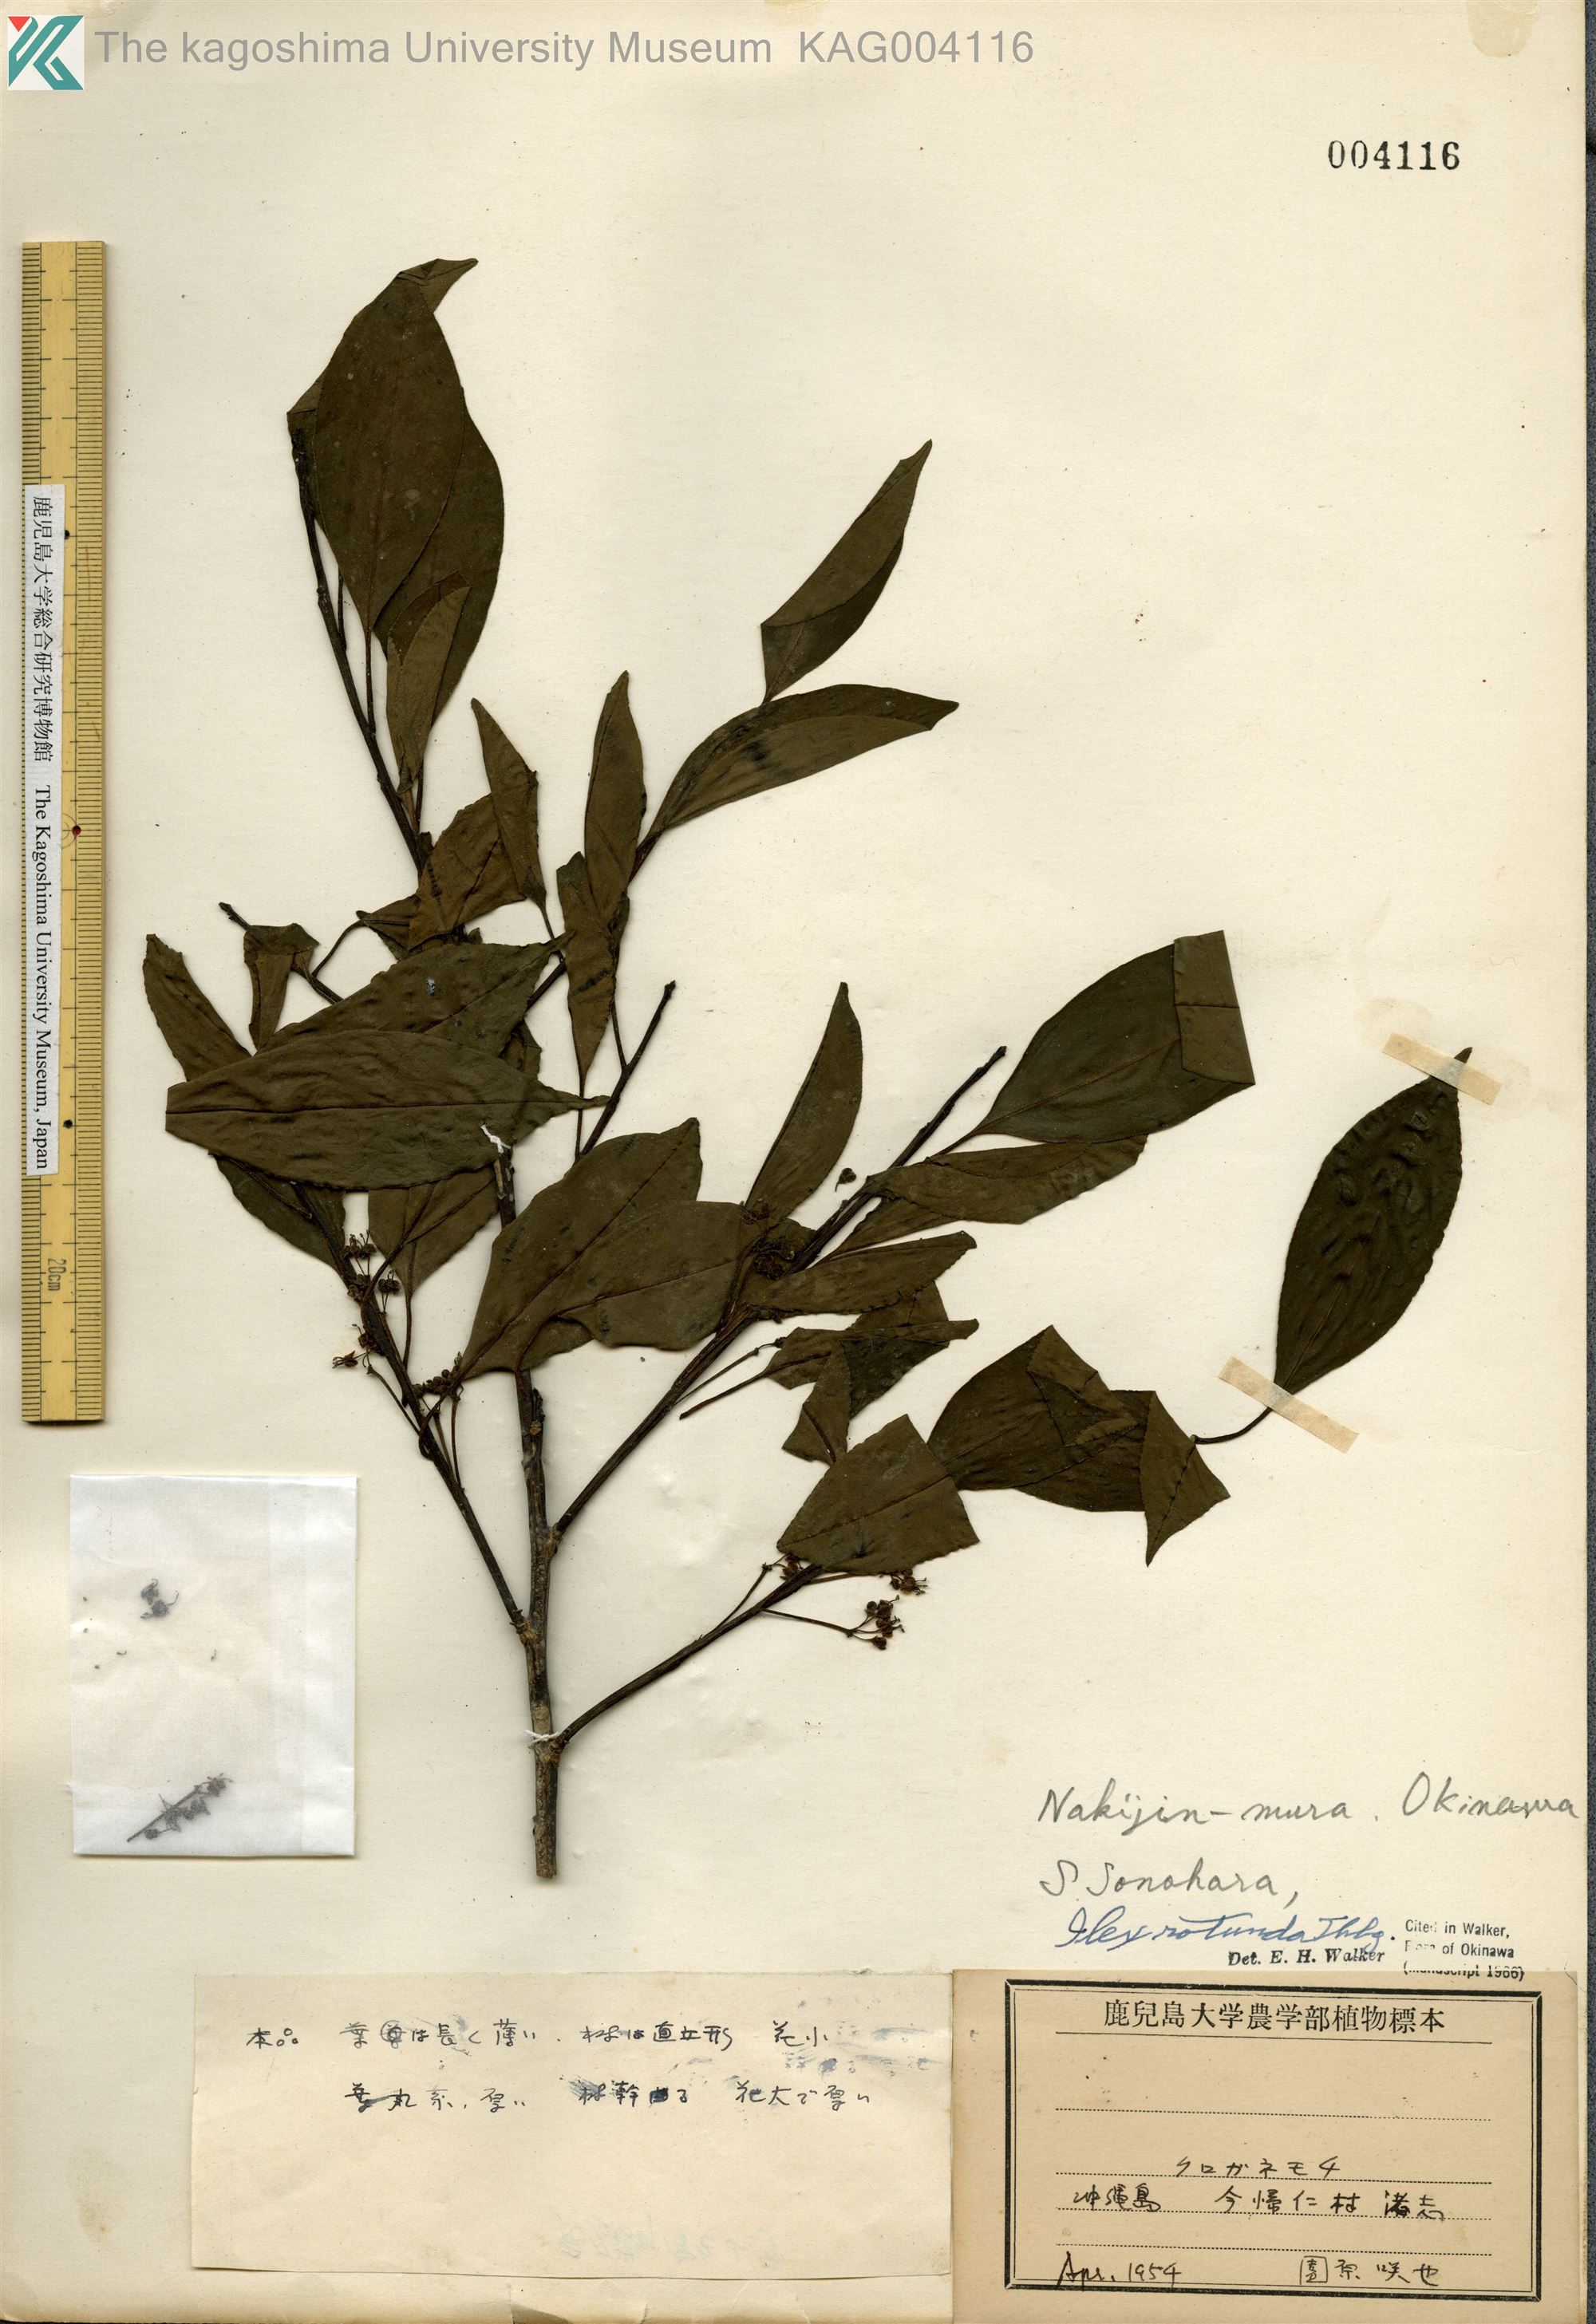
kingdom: Plantae
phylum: Tracheophyta
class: Magnoliopsida
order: Aquifoliales
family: Aquifoliaceae
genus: Ilex
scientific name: Ilex rotunda
